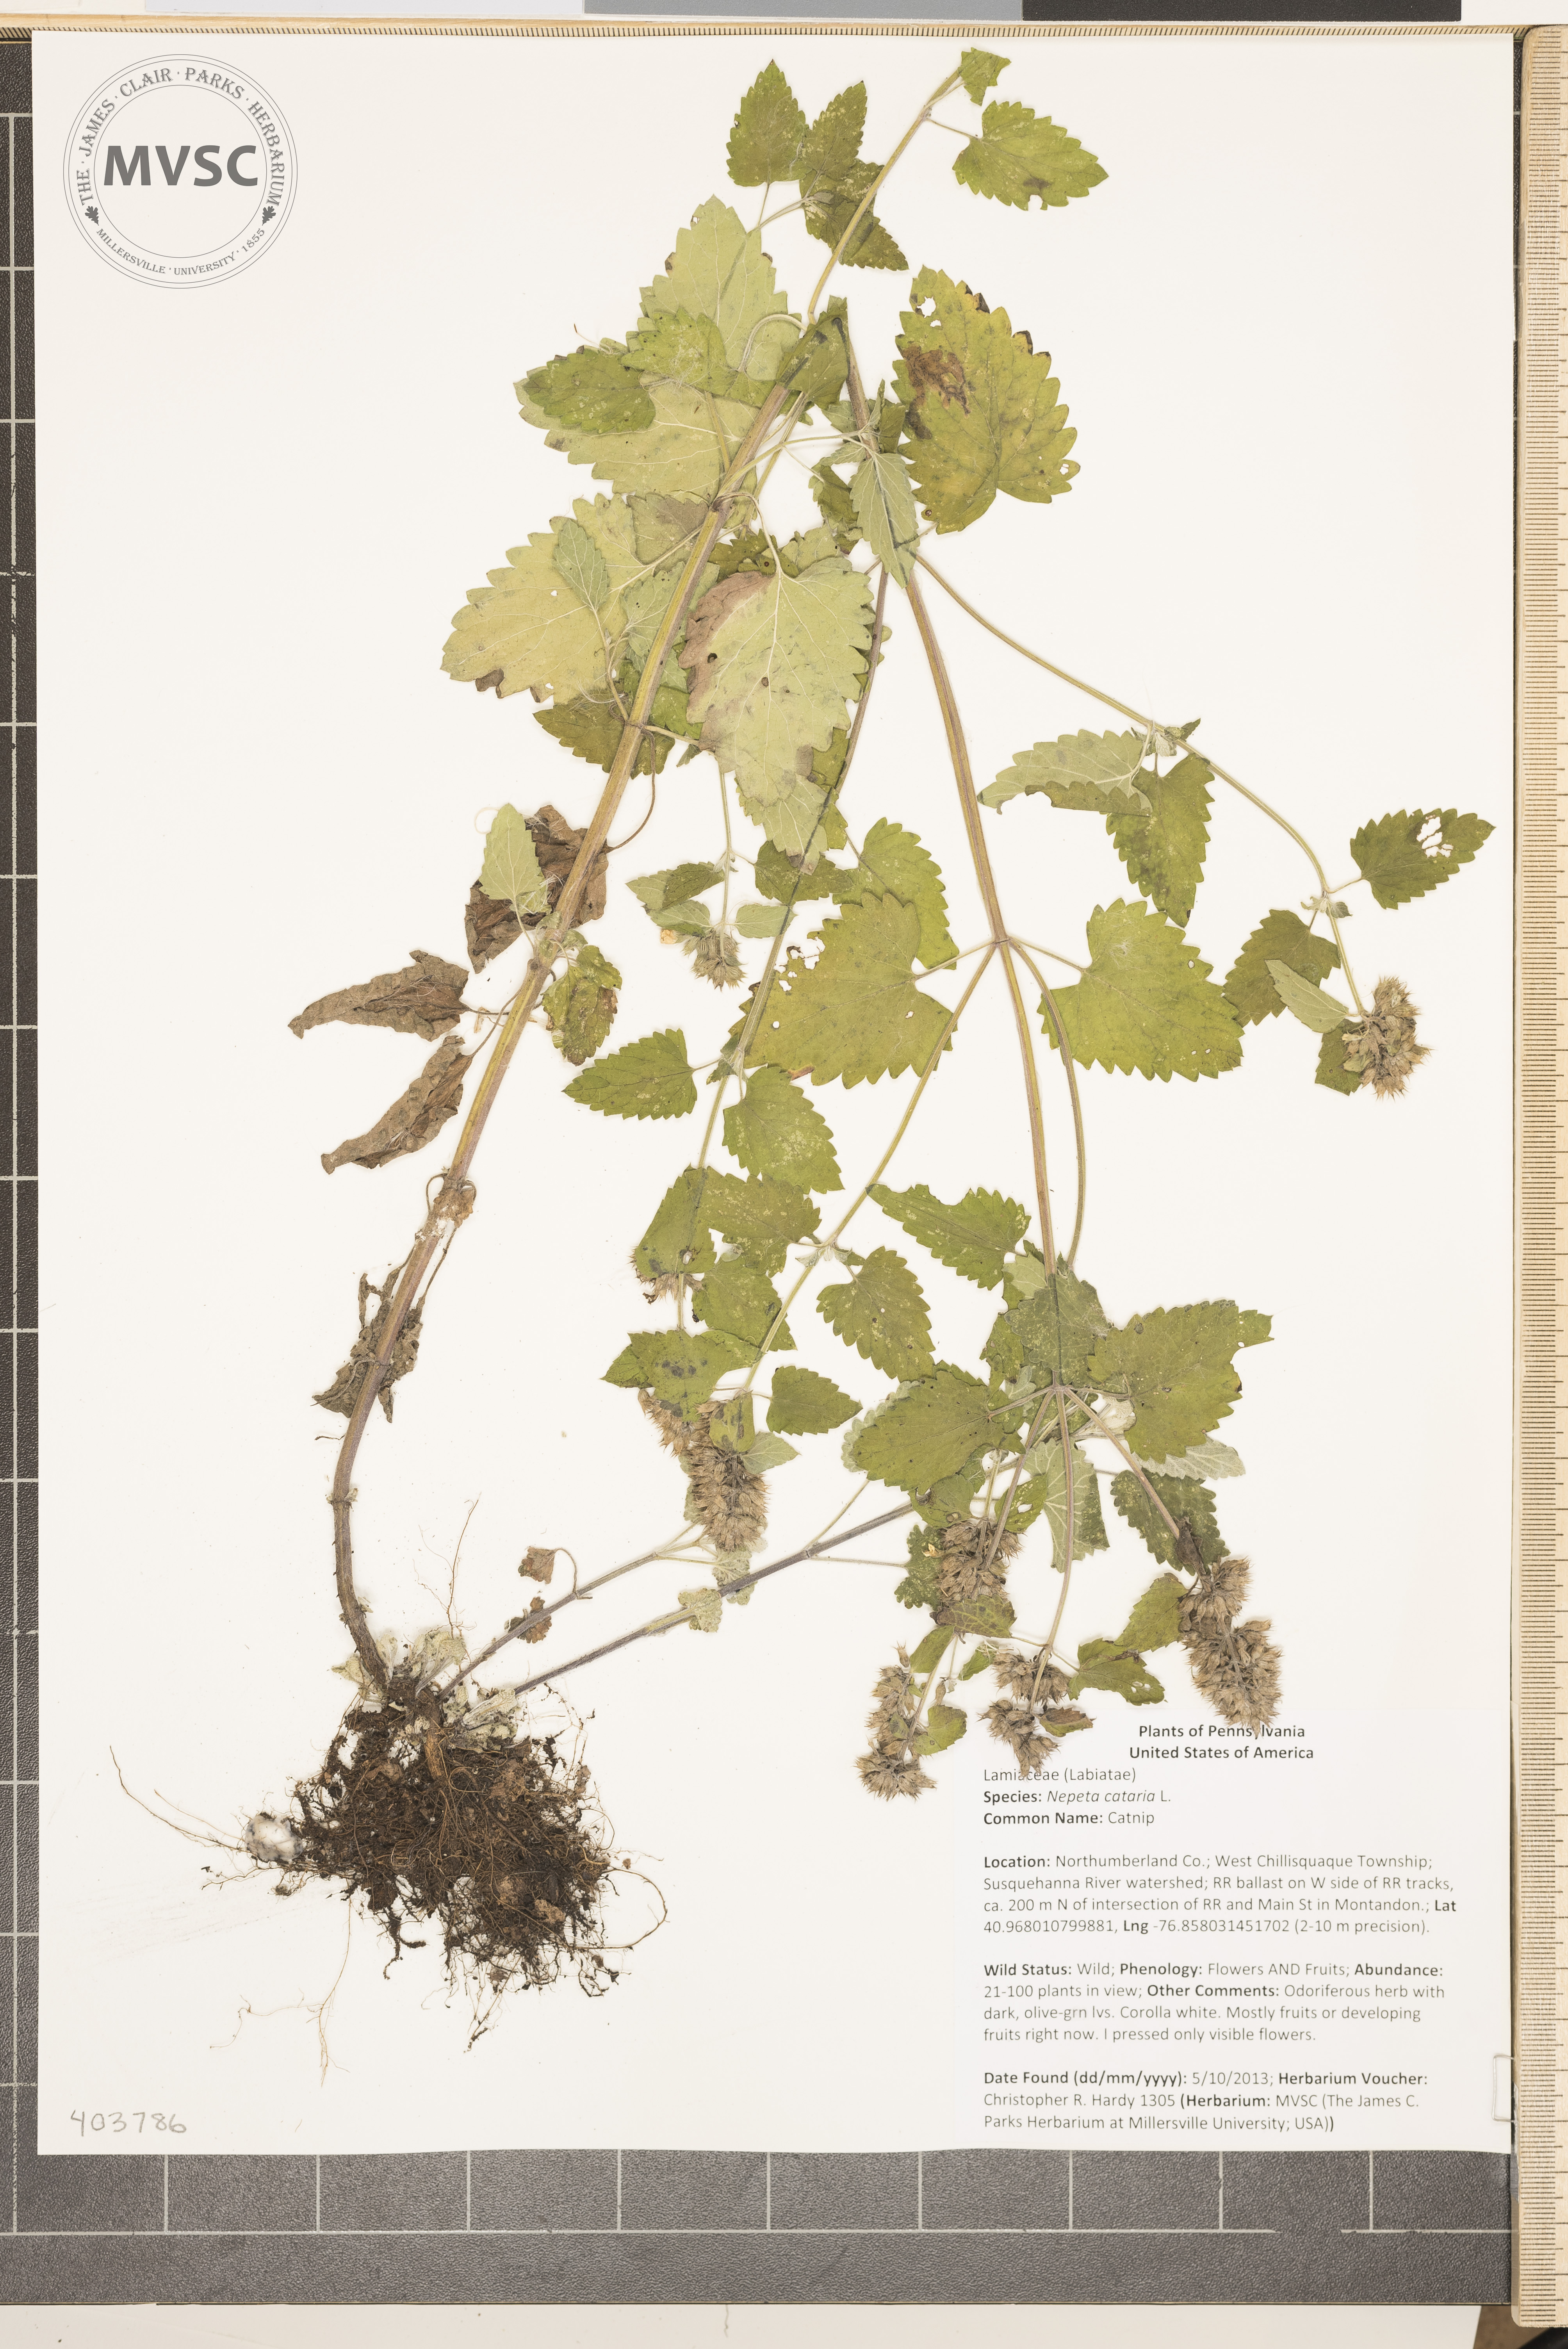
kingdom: Plantae
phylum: Tracheophyta
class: Magnoliopsida
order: Lamiales
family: Lamiaceae
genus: Nepeta
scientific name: Nepeta cataria
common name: Catnip
